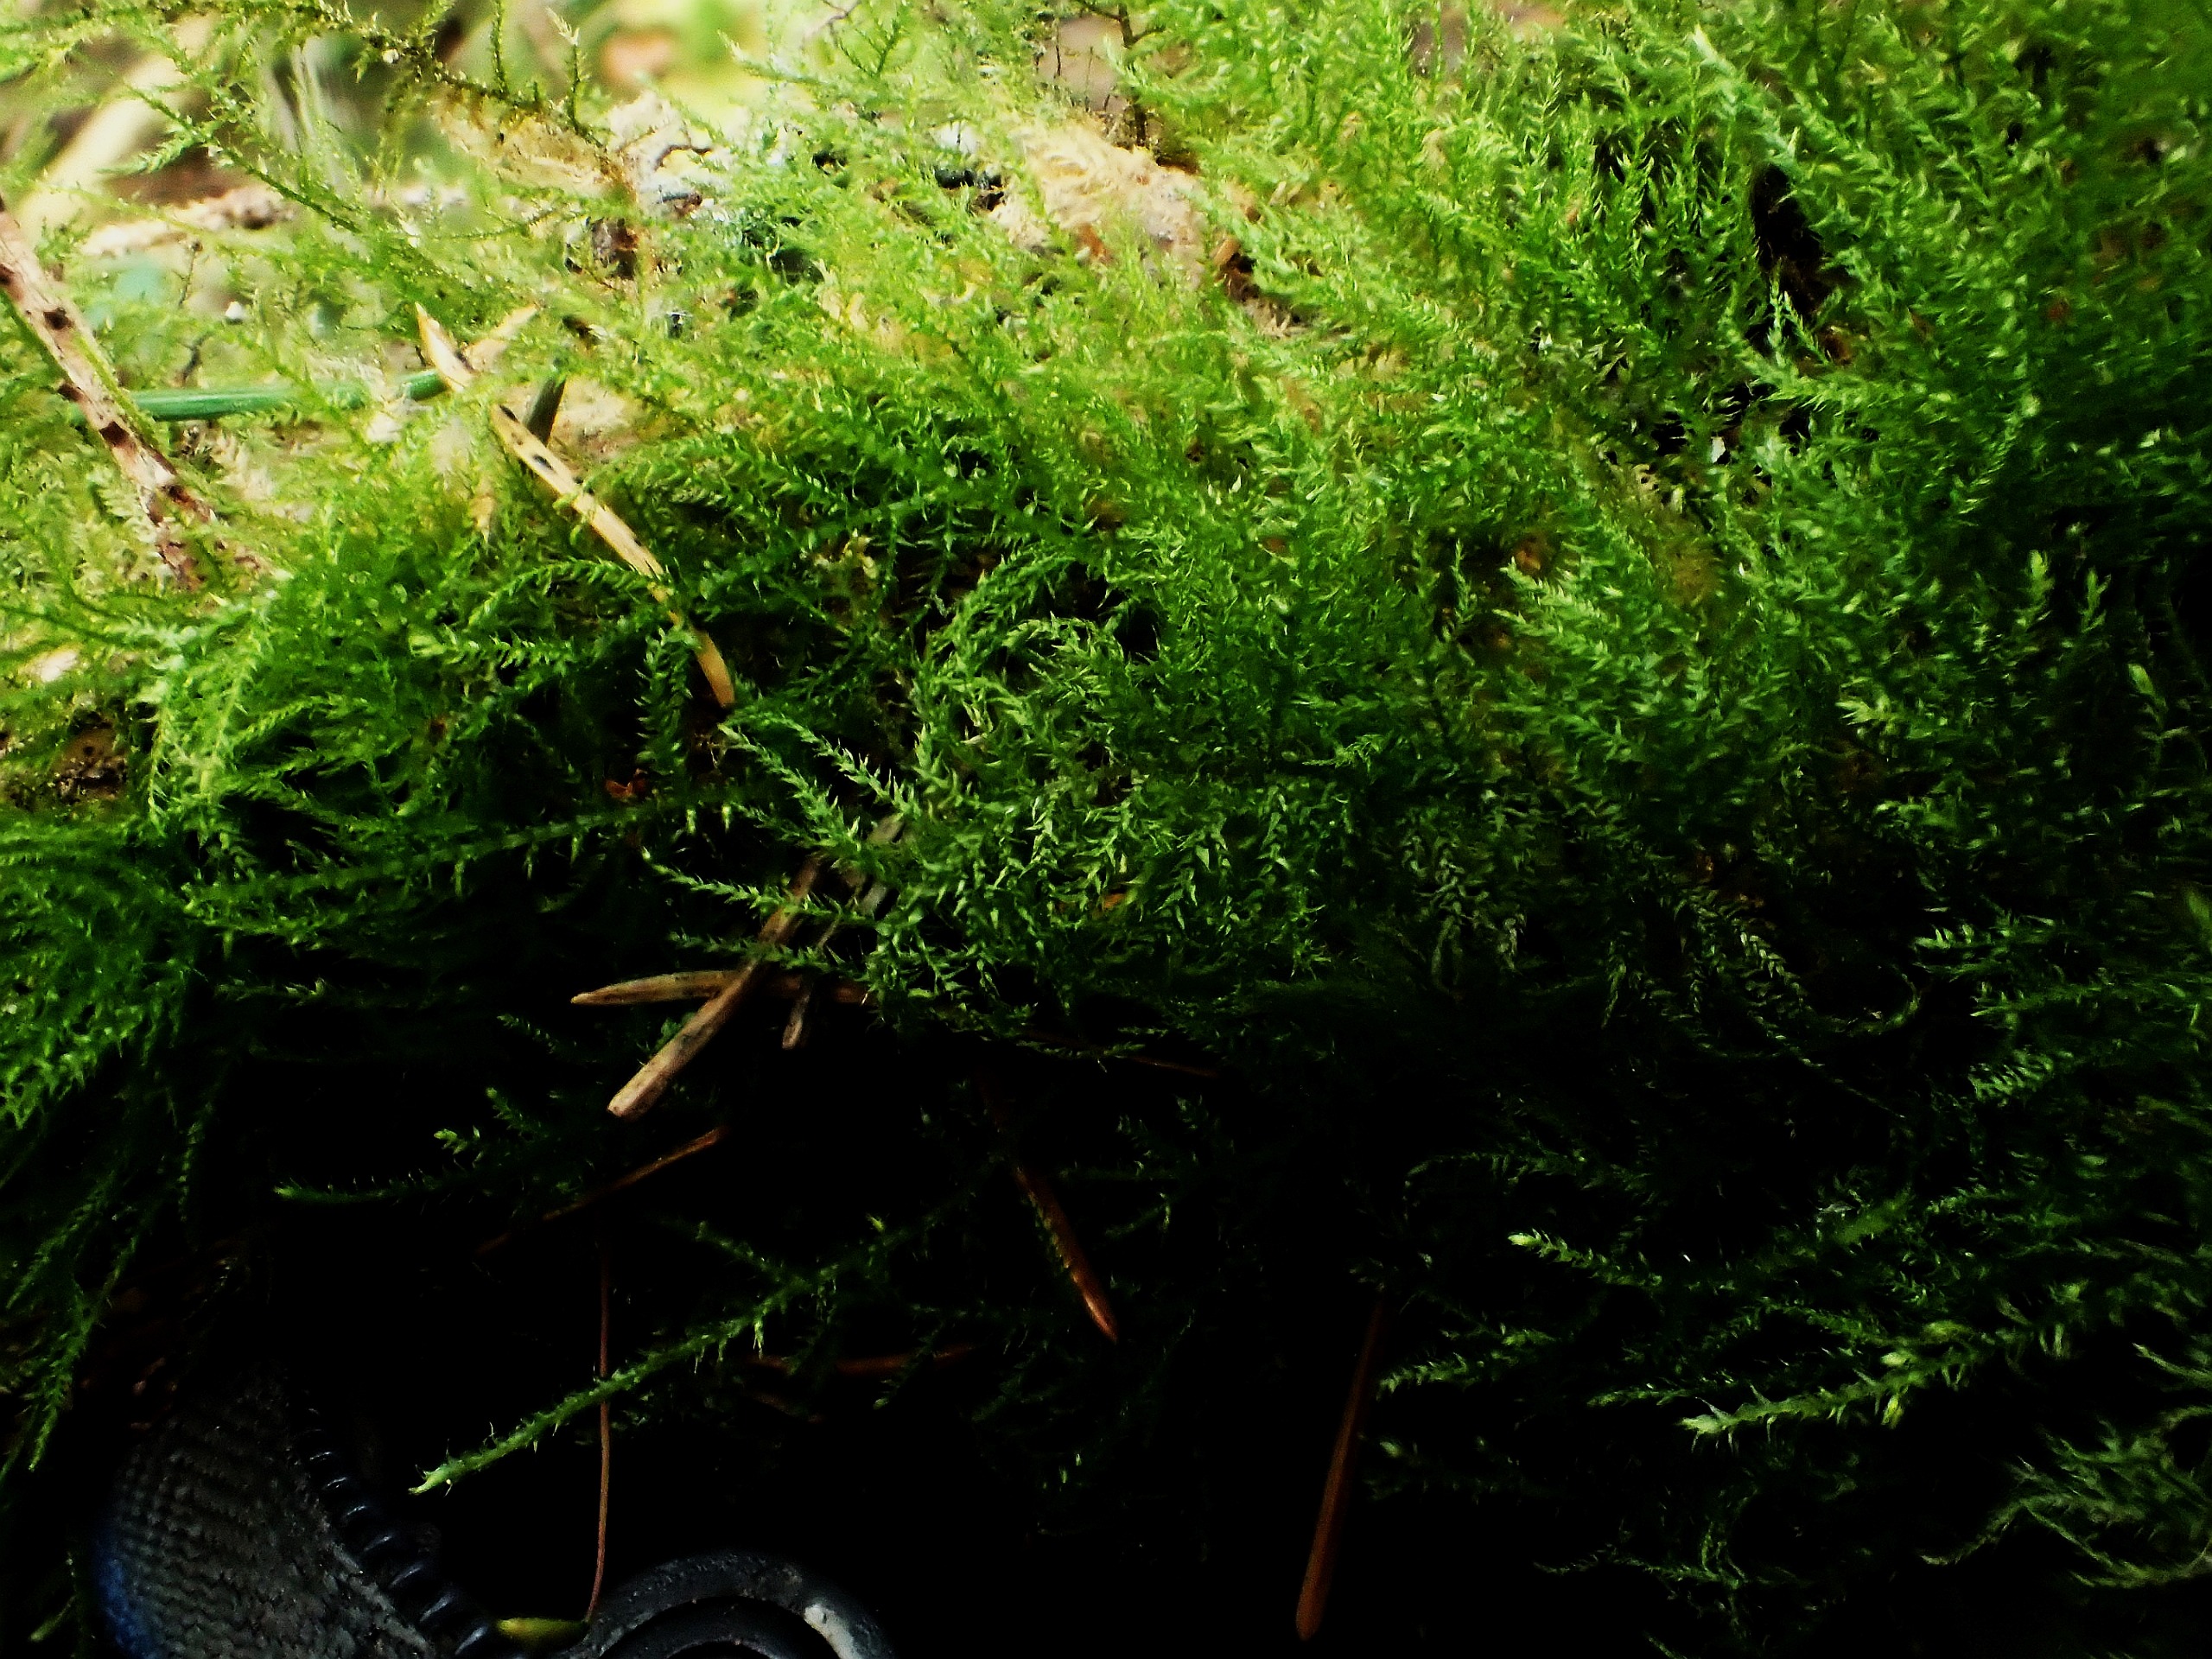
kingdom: Plantae
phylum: Bryophyta
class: Bryopsida
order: Hypnales
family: Brachytheciaceae
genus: Kindbergia
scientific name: Kindbergia praelonga
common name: Forskelligbladet vortetand
